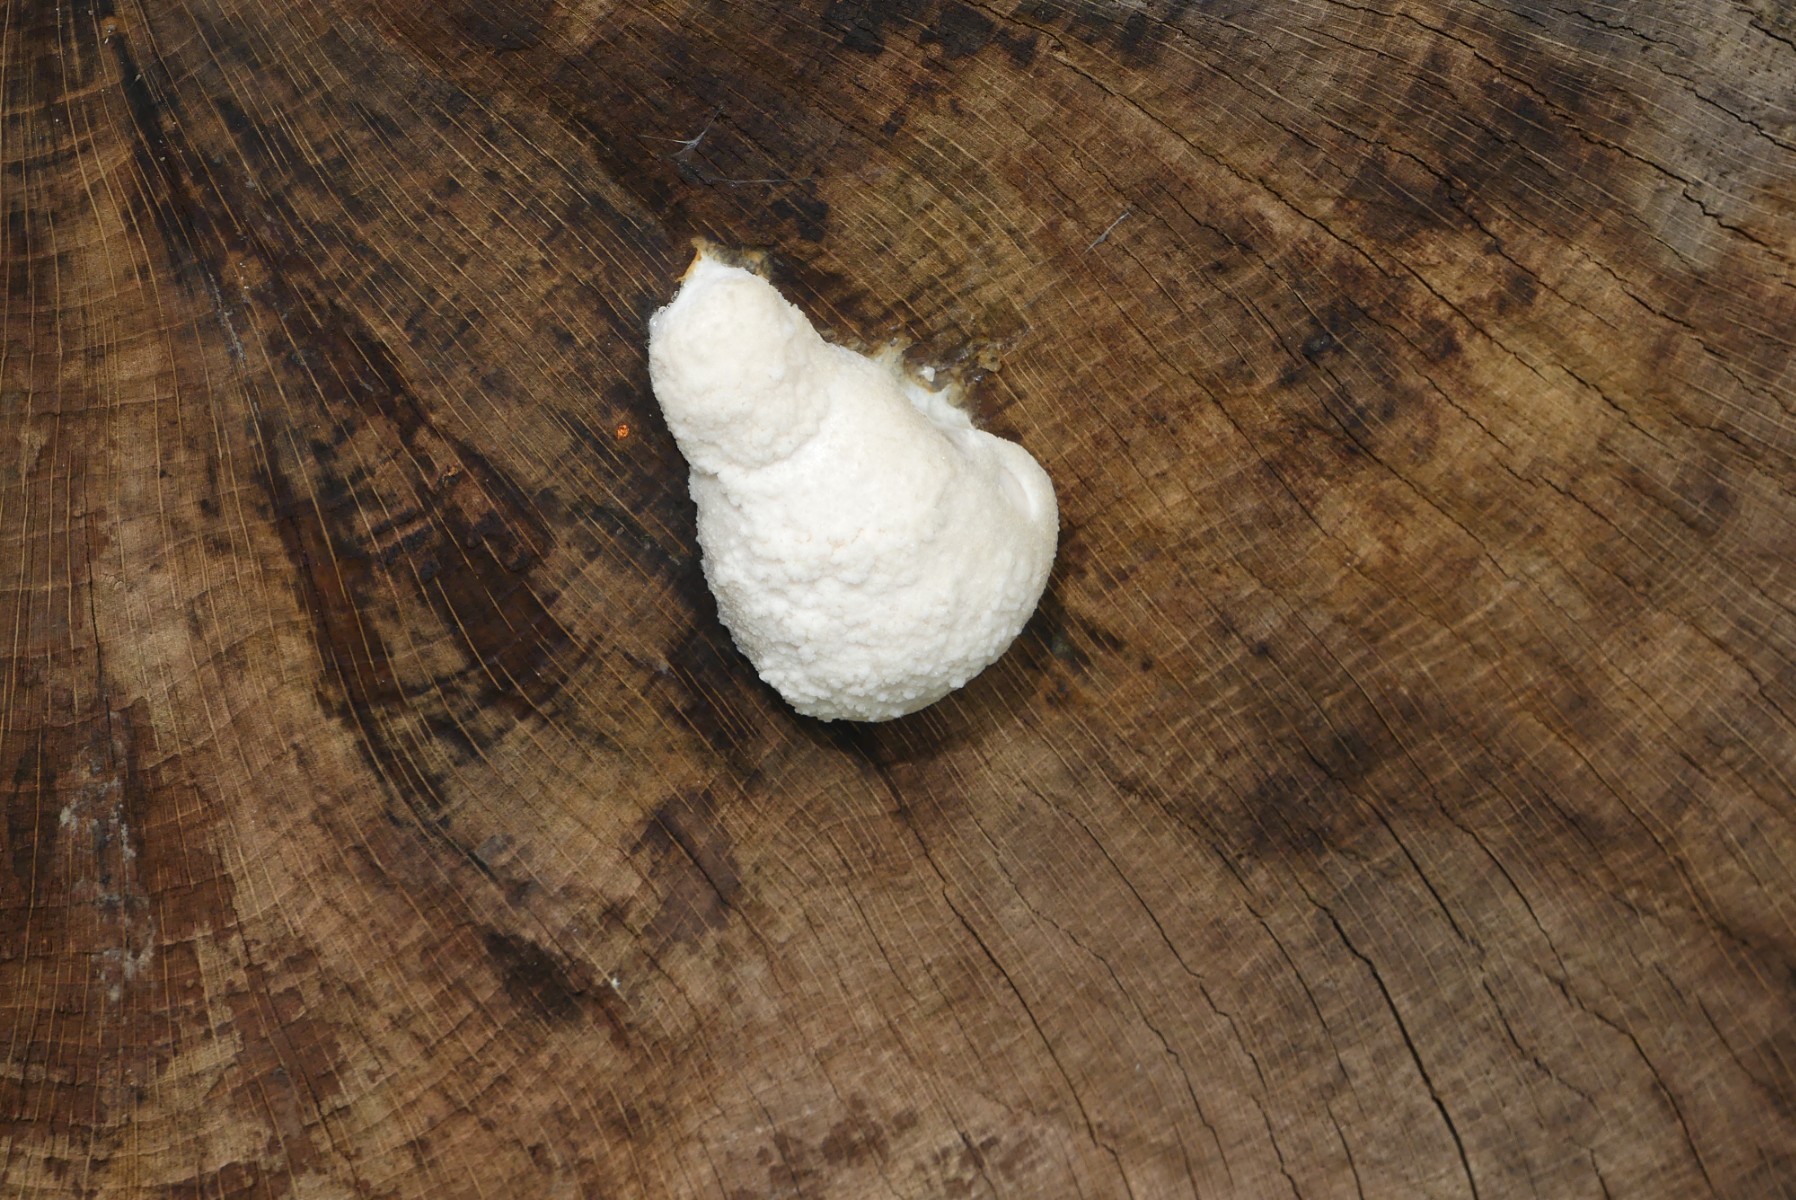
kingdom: Protozoa
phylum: Mycetozoa
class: Myxomycetes
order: Cribrariales
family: Tubiferaceae
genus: Reticularia
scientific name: Reticularia lycoperdon
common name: skinnende støvpude
